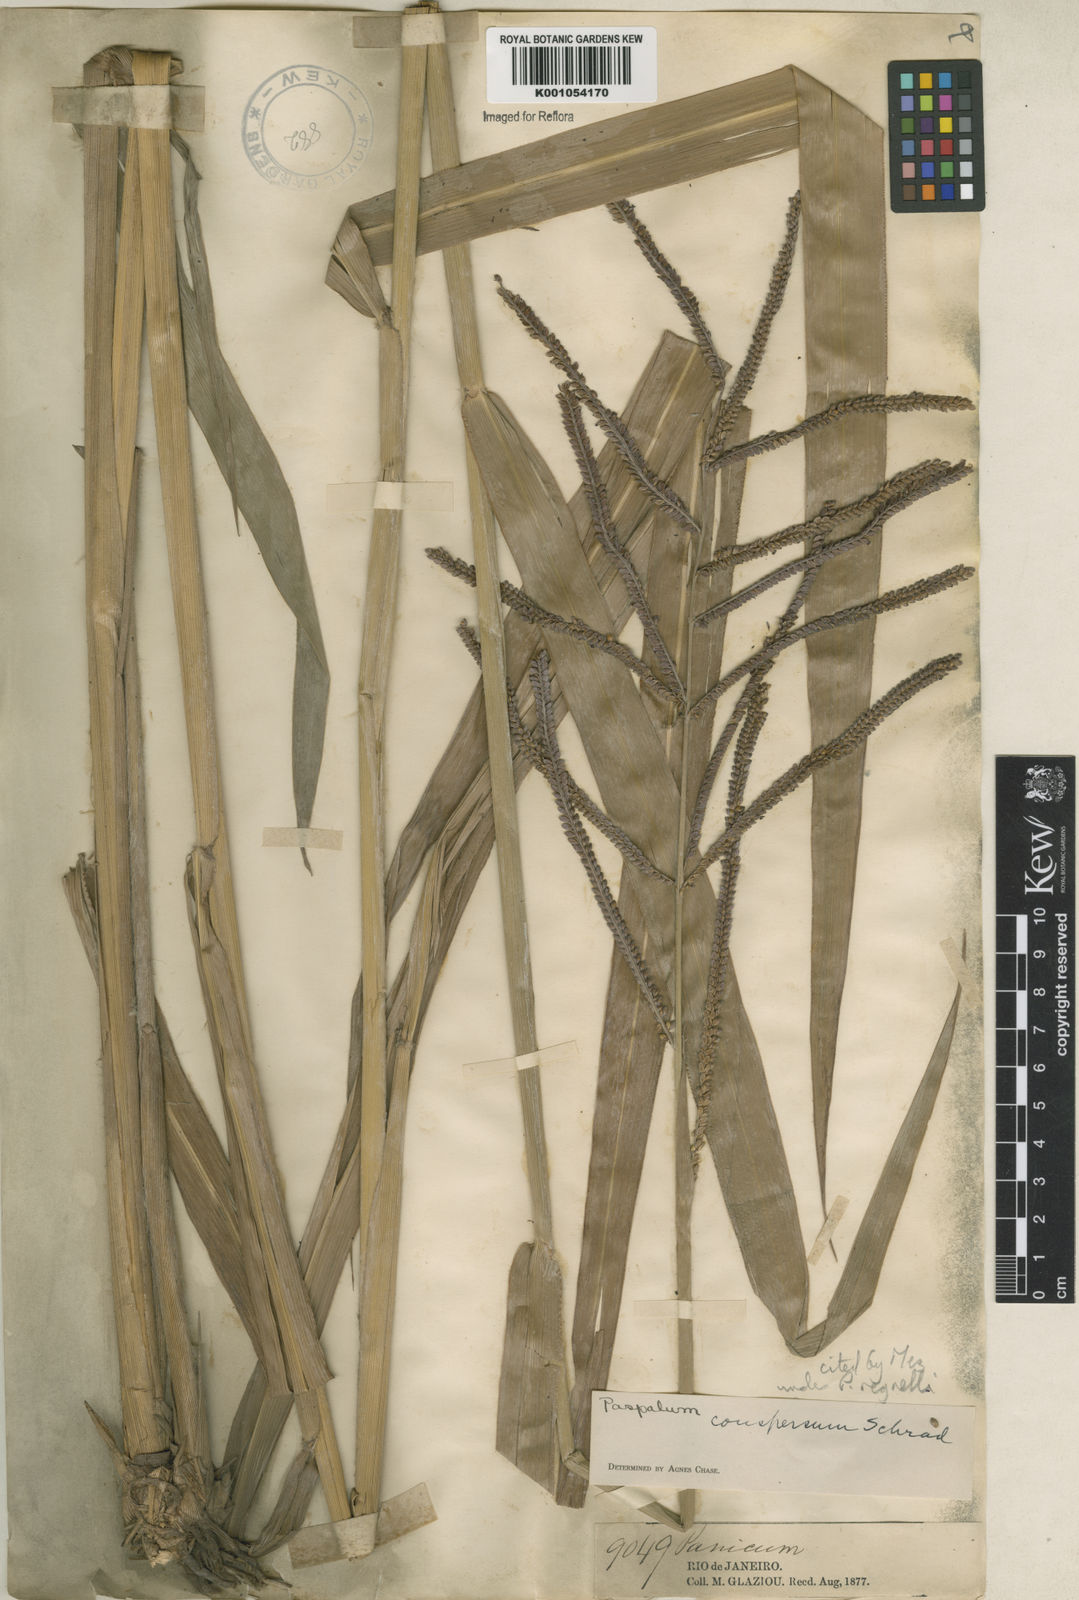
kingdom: Plantae
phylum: Tracheophyta
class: Liliopsida
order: Poales
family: Poaceae
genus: Paspalum
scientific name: Paspalum conspersum
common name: Scattered paspalum
